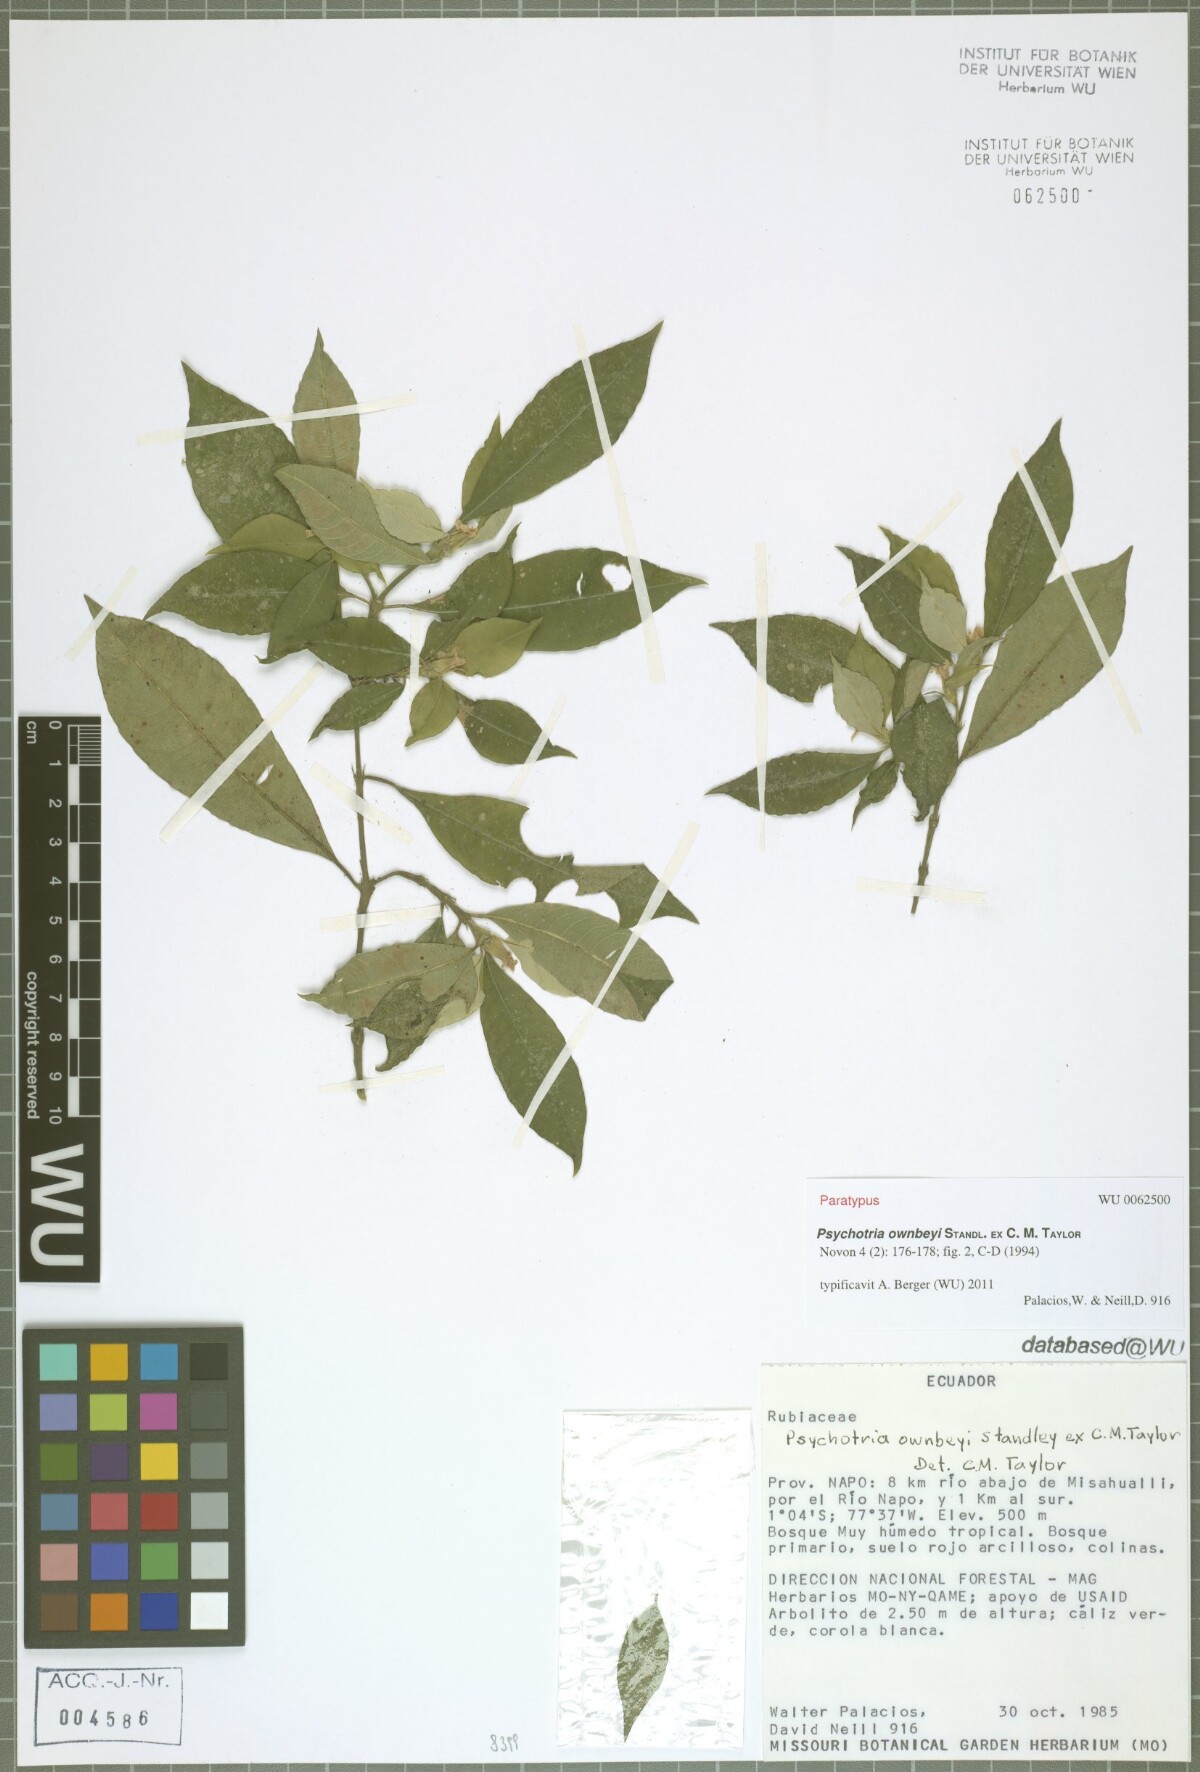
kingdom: Plantae
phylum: Tracheophyta
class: Magnoliopsida
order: Gentianales
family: Rubiaceae
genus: Palicourea
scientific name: Palicourea ownbeyi
